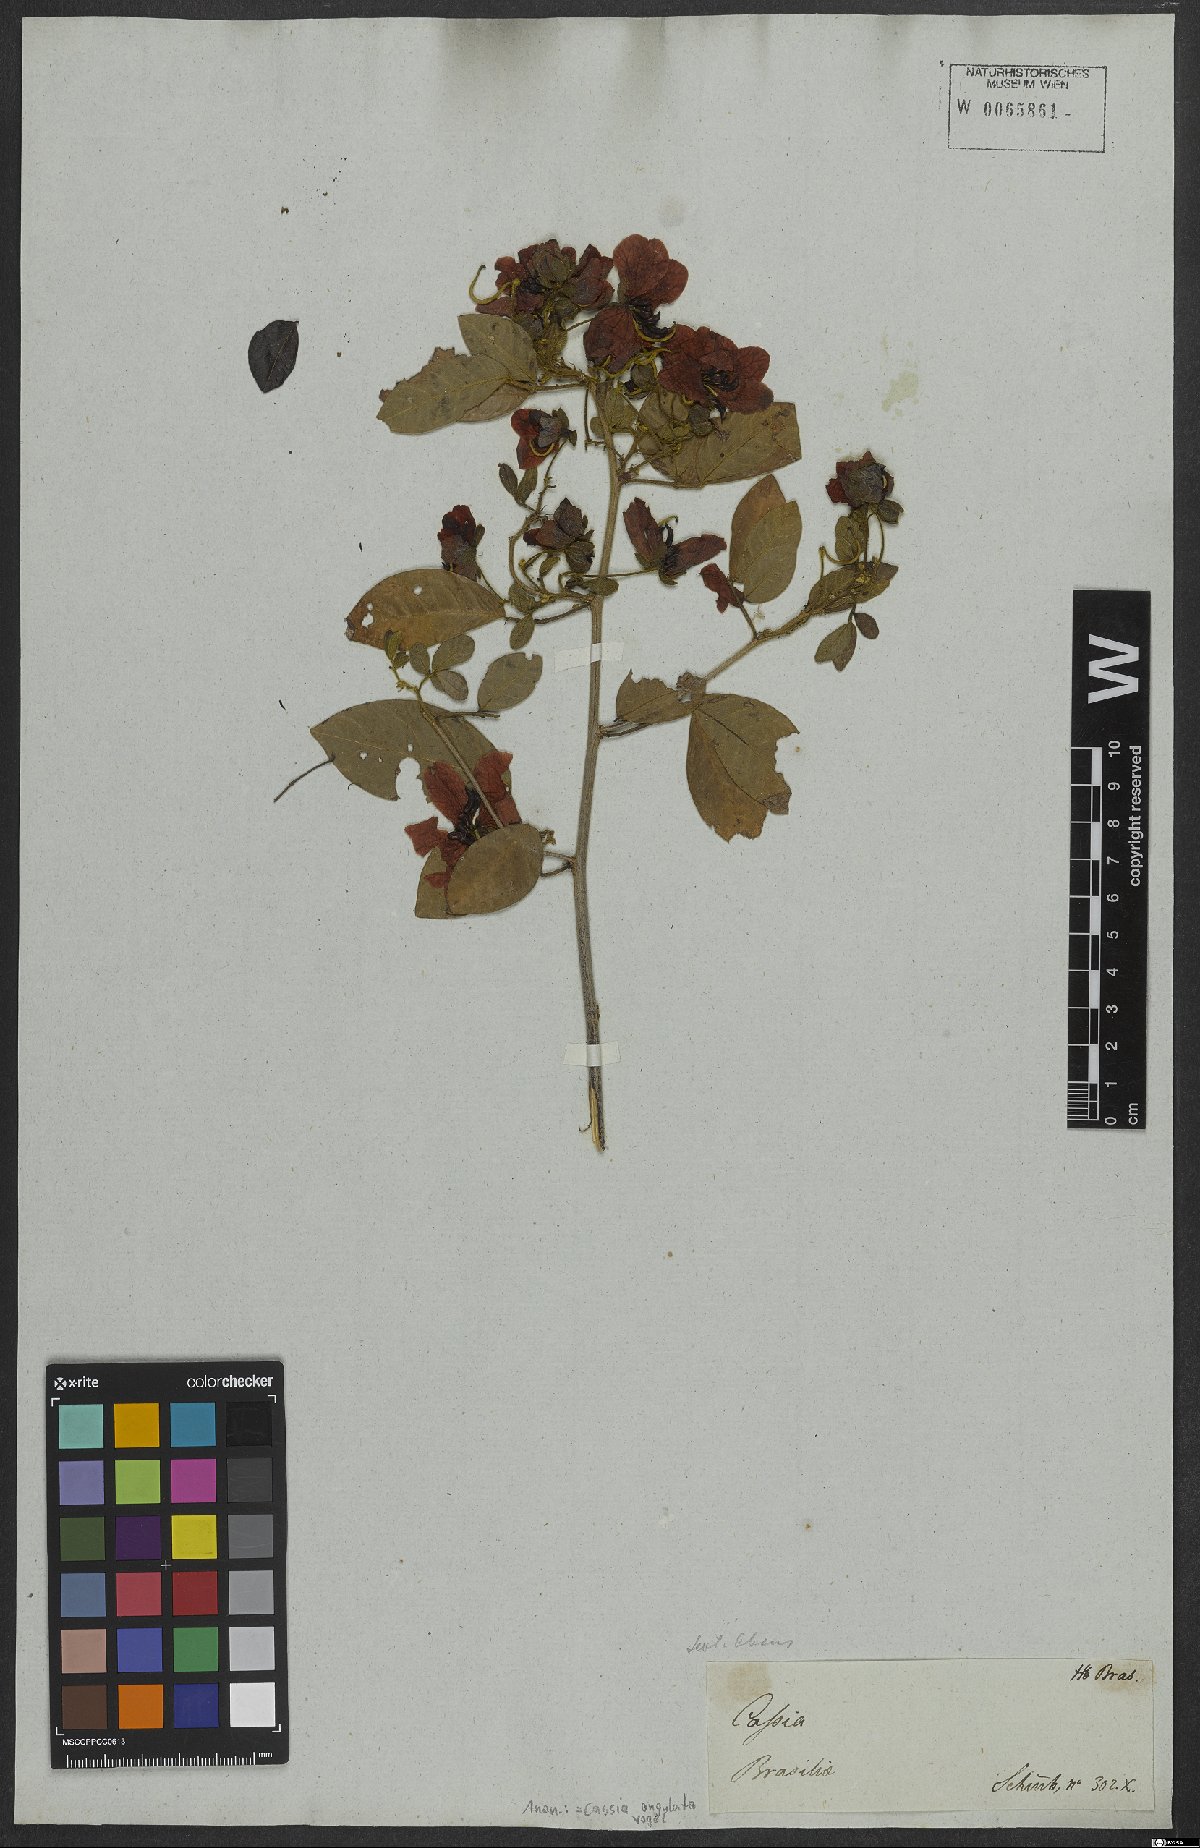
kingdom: Plantae
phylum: Tracheophyta
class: Magnoliopsida
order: Fabales
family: Fabaceae
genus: Senna
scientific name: Senna angulata
